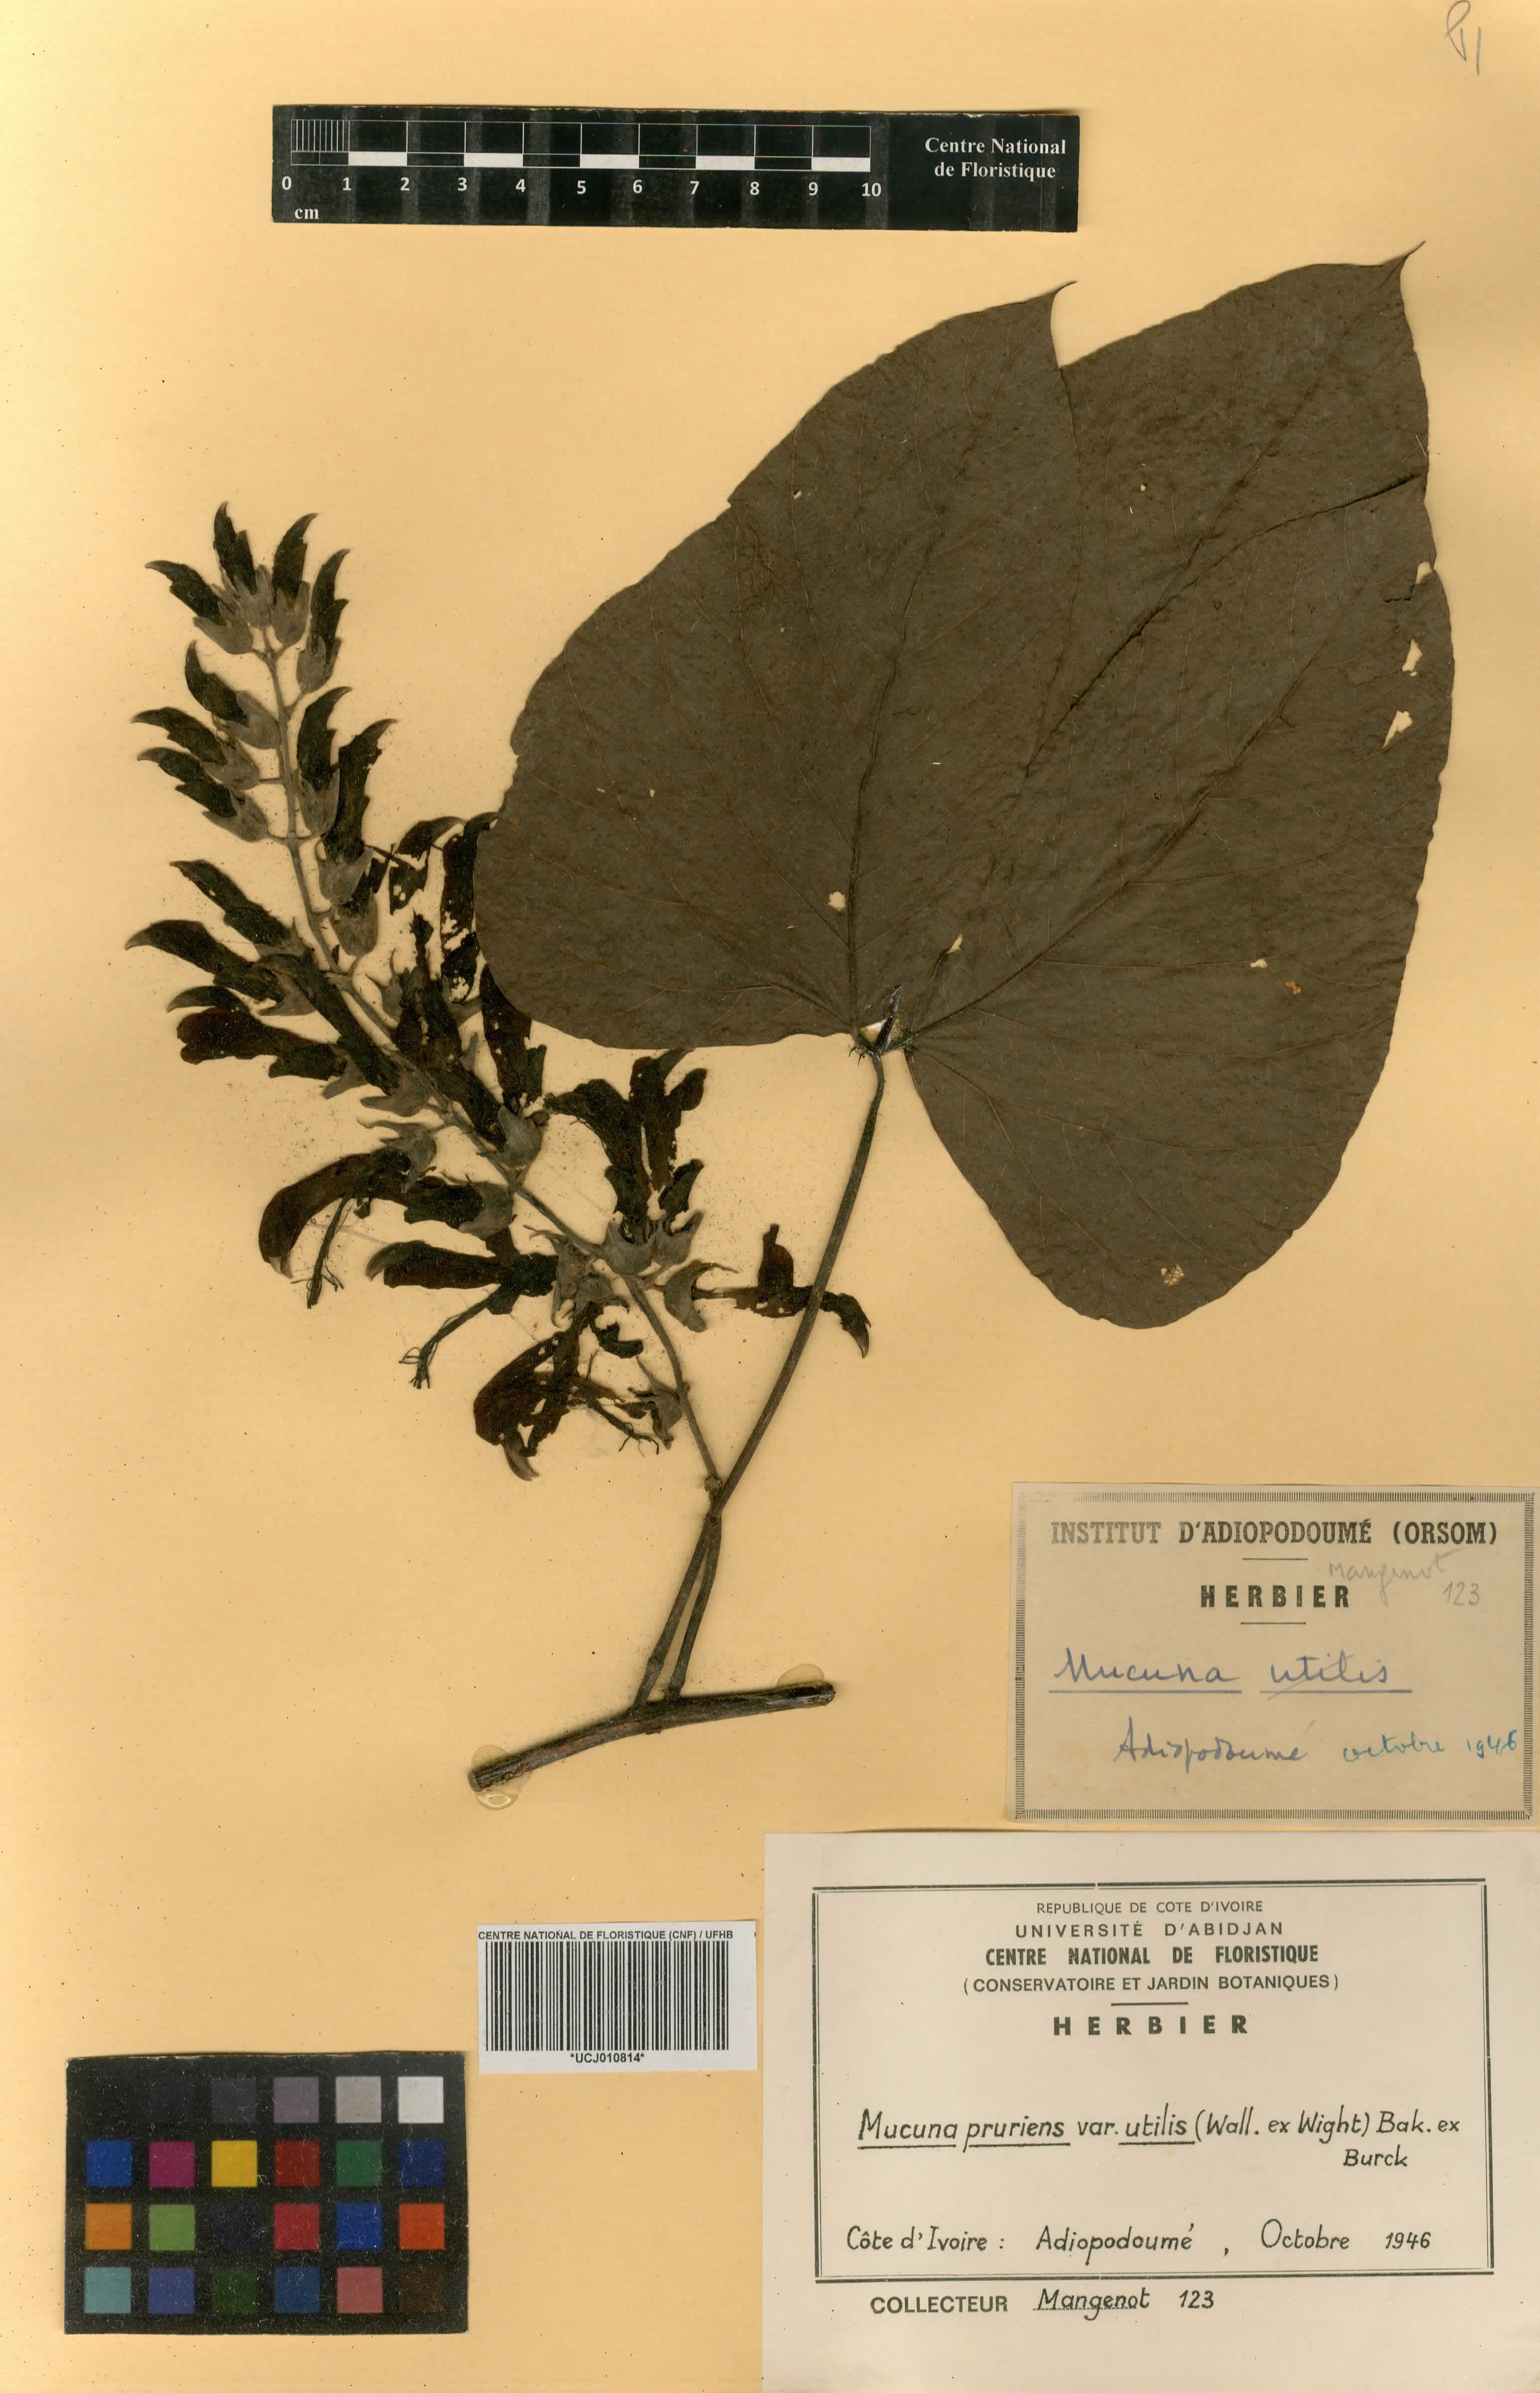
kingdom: Plantae
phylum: Tracheophyta
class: Magnoliopsida
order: Fabales
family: Fabaceae
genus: Mucuna
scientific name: Mucuna pruriens
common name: Cow-itch
